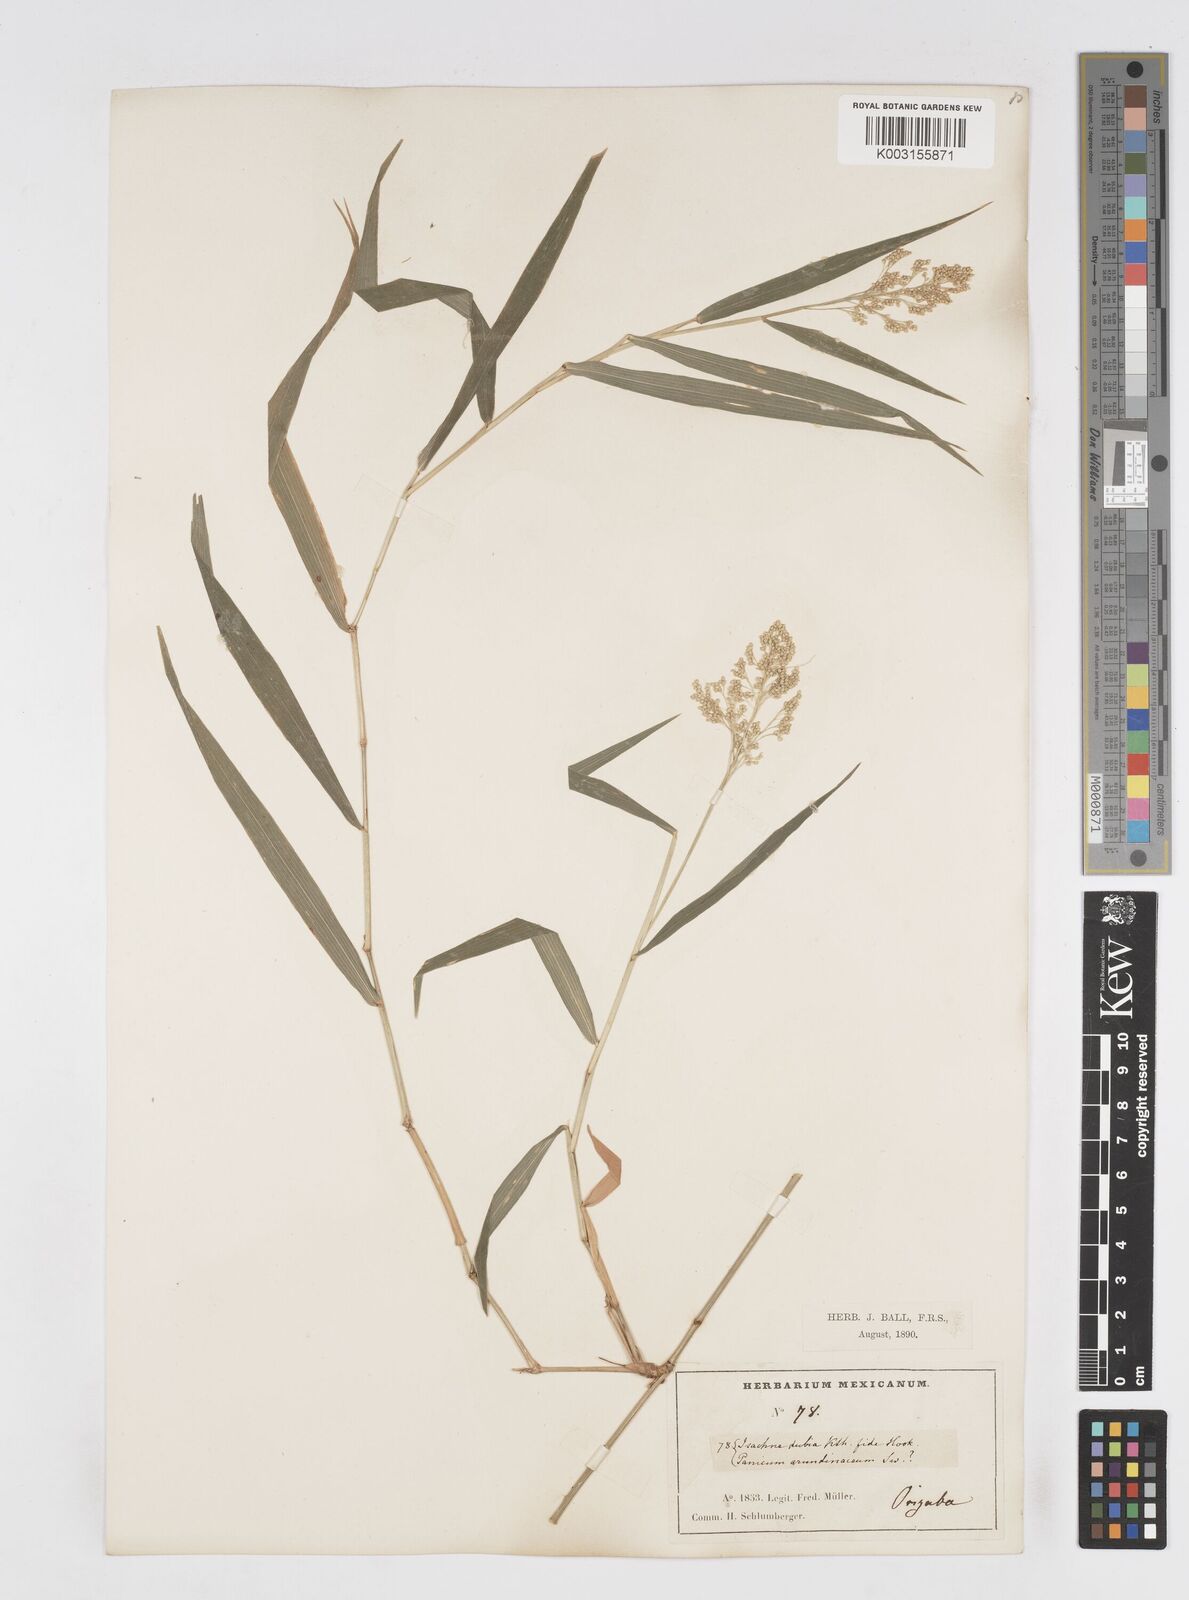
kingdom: Plantae
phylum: Tracheophyta
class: Liliopsida
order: Poales
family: Poaceae
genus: Isachne
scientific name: Isachne arundinacea
